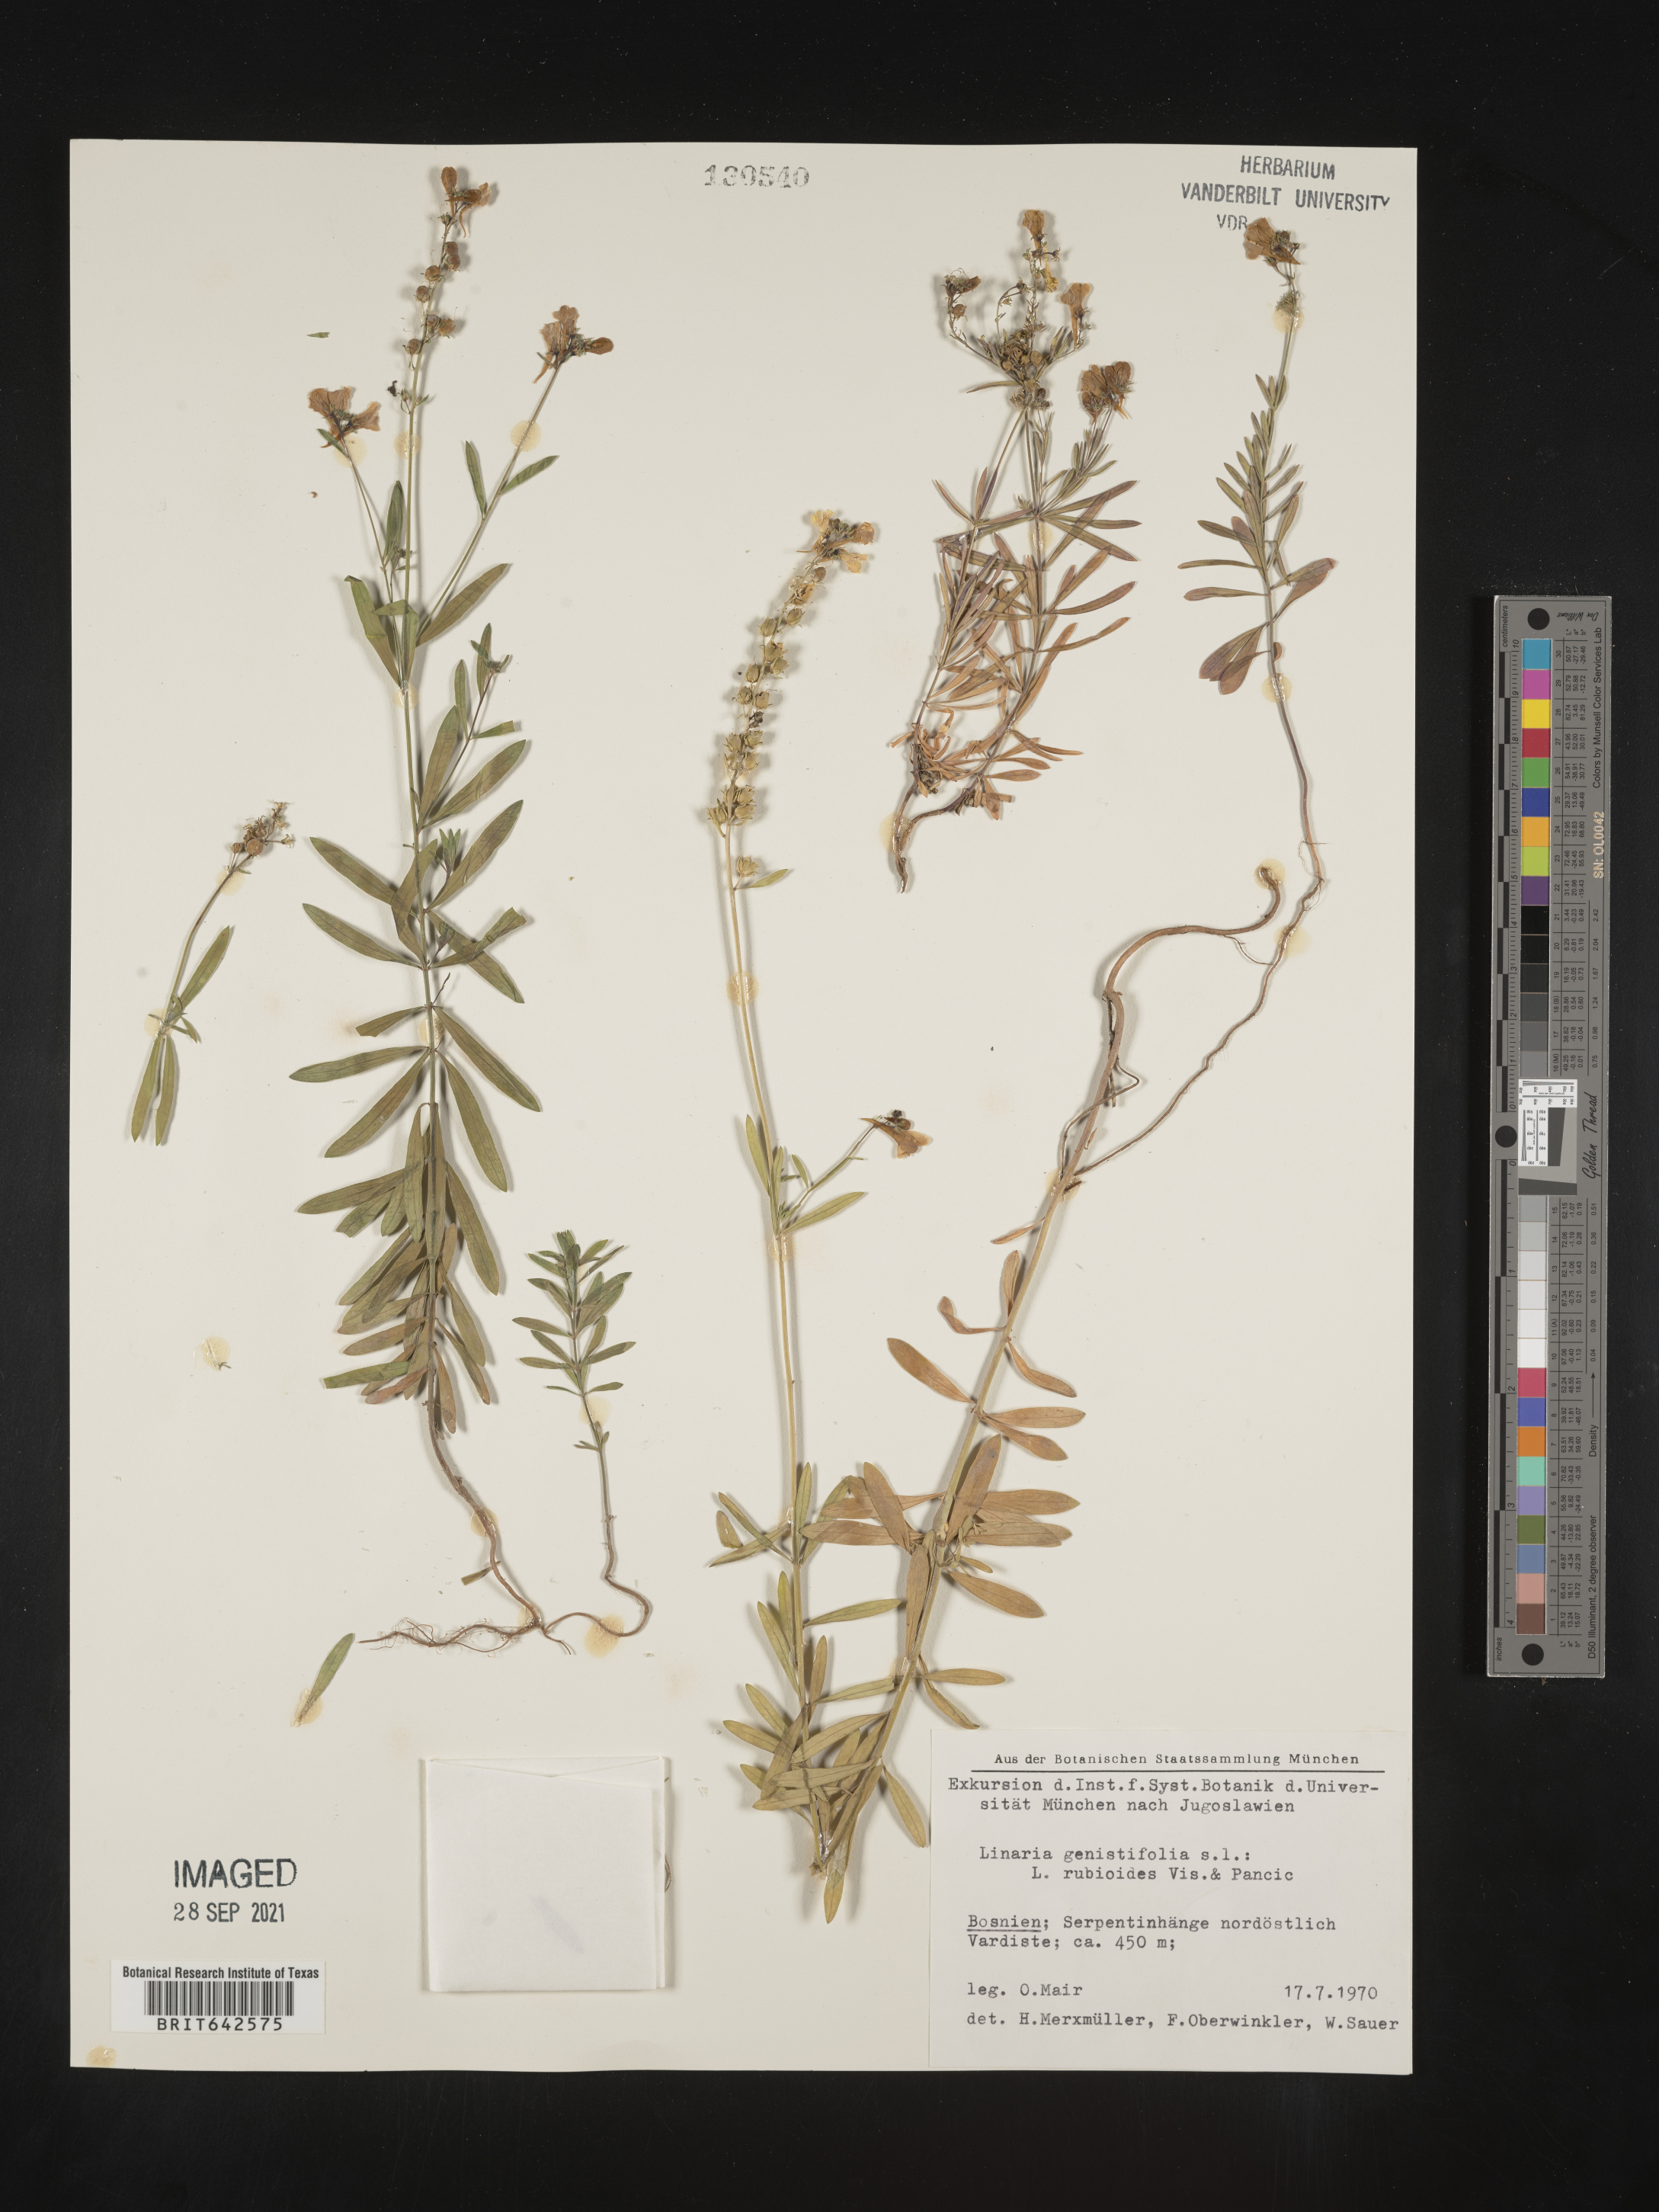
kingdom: Plantae
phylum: Tracheophyta
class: Magnoliopsida
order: Lamiales
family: Plantaginaceae
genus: Linaria
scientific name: Linaria
